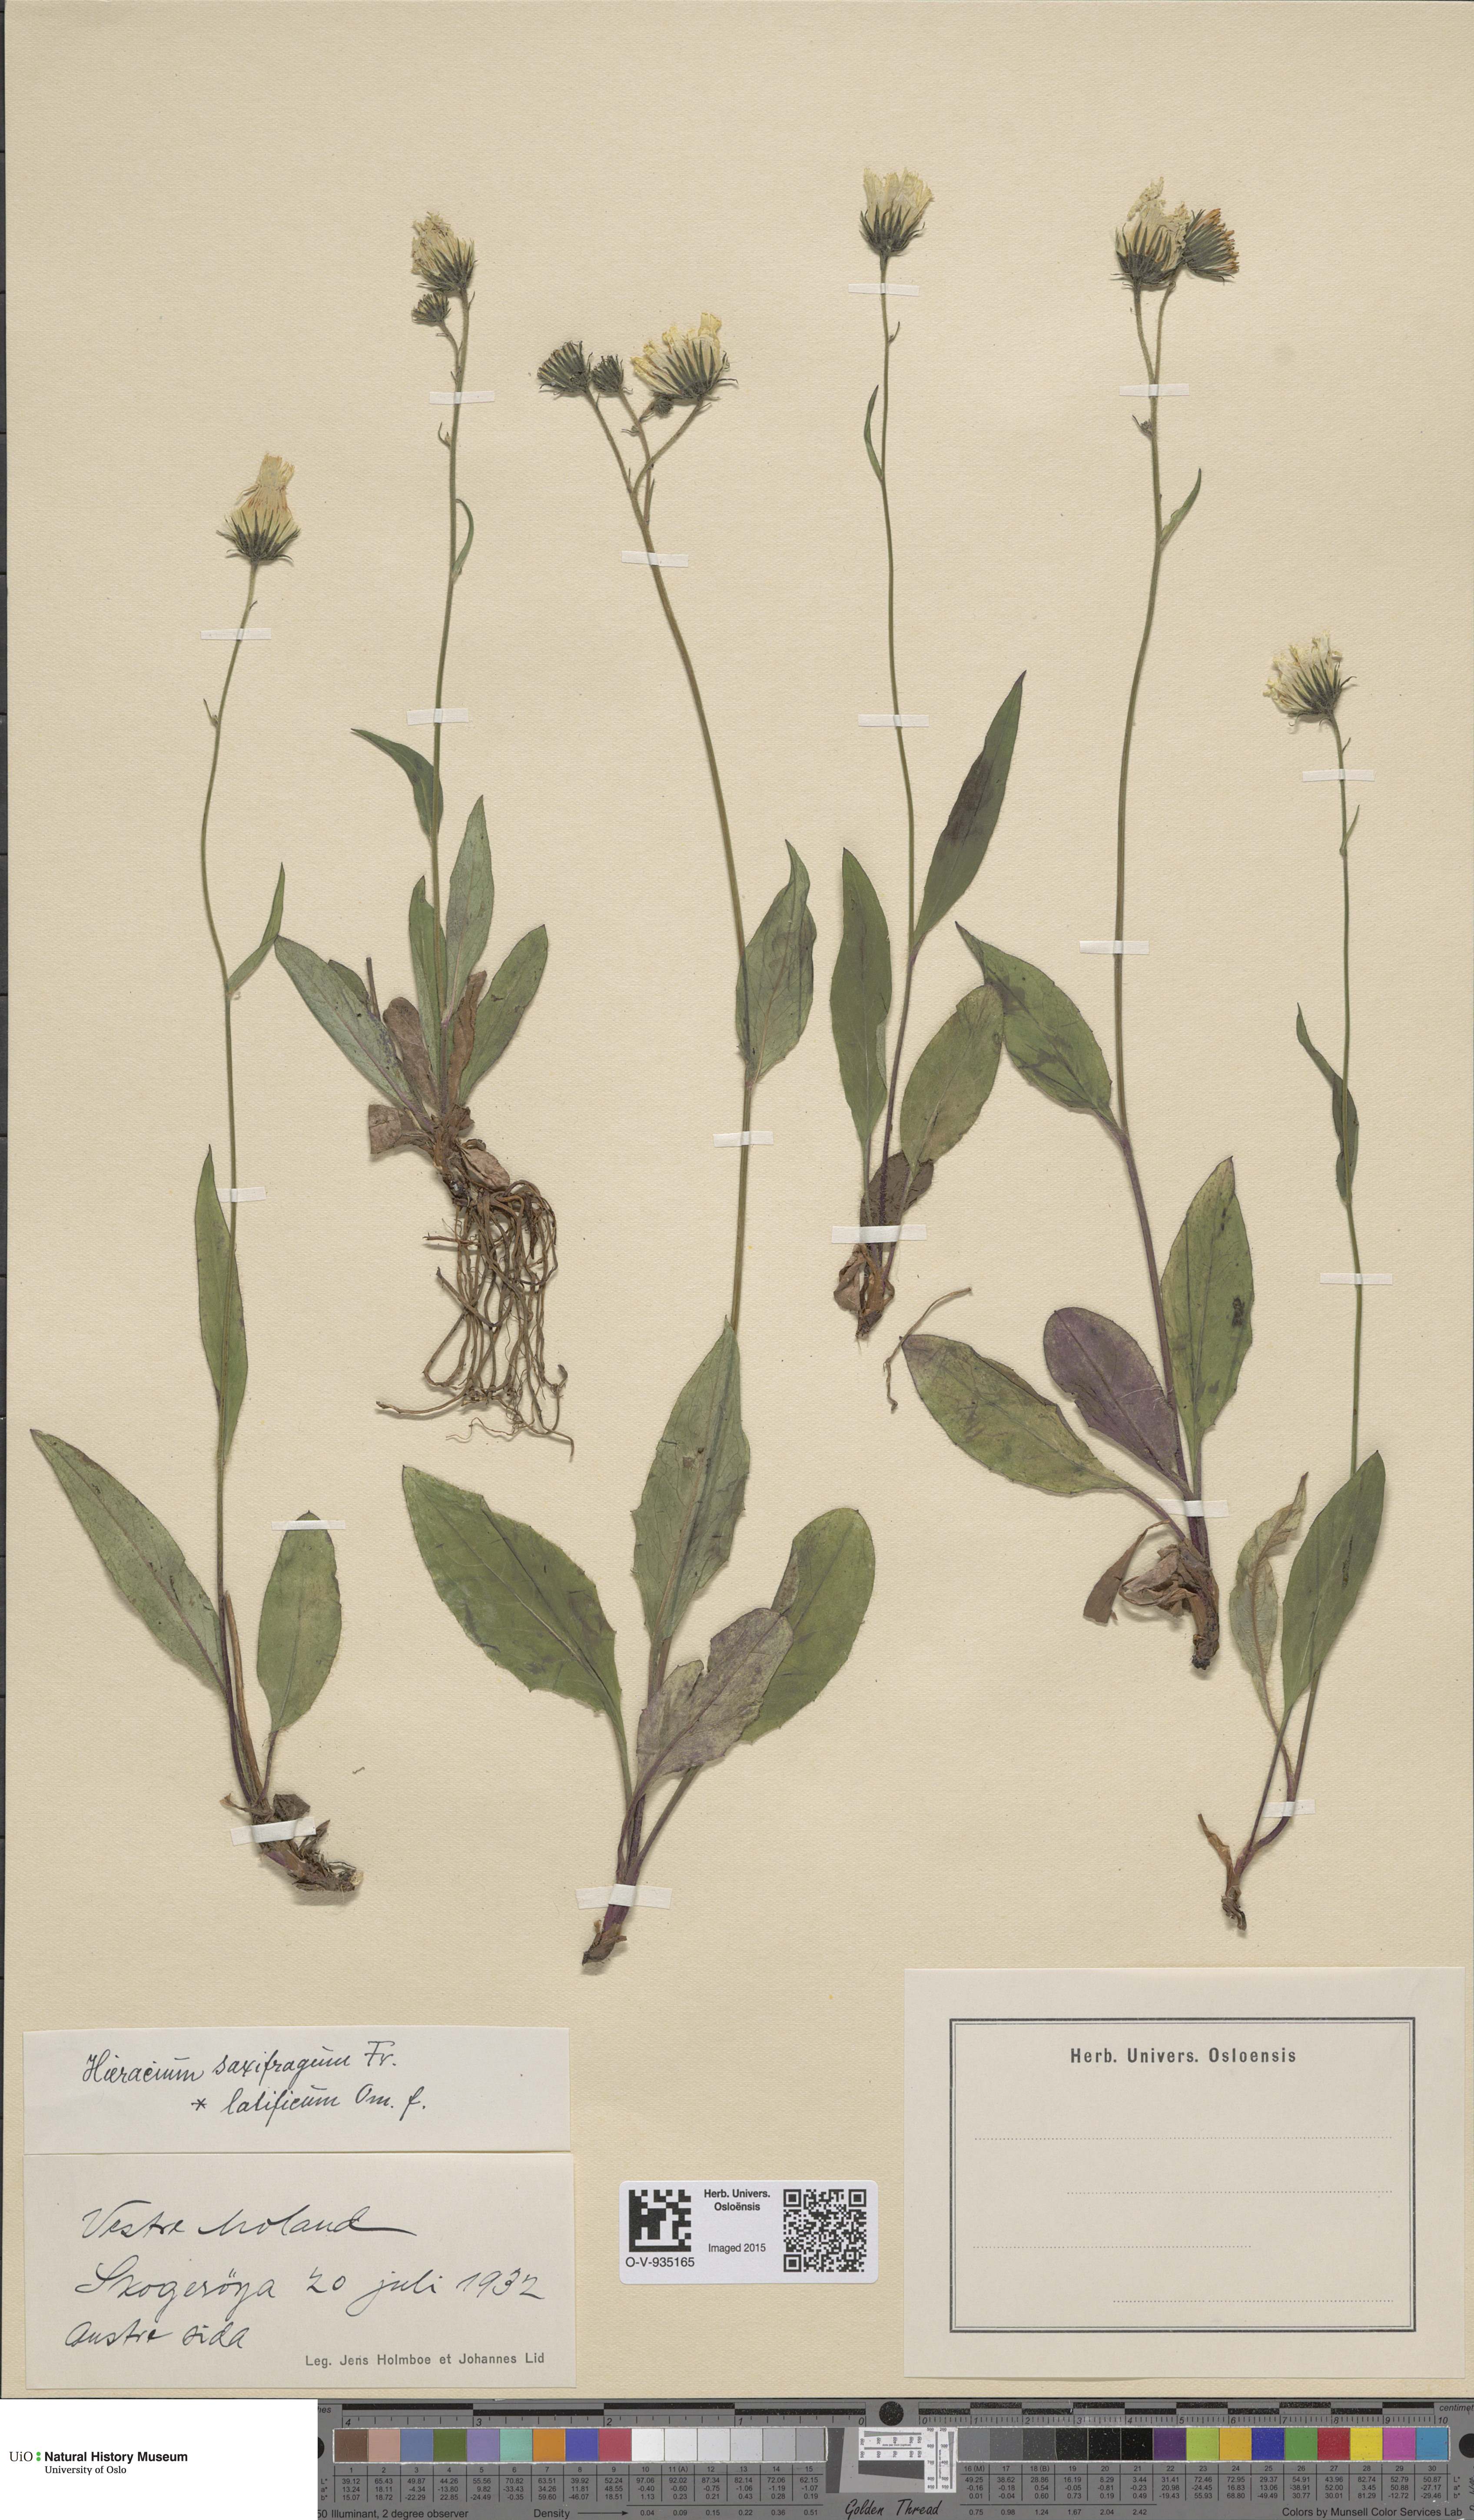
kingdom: Plantae
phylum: Tracheophyta
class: Magnoliopsida
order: Asterales
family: Asteraceae
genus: Hieracium
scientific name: Hieracium saxifragum
